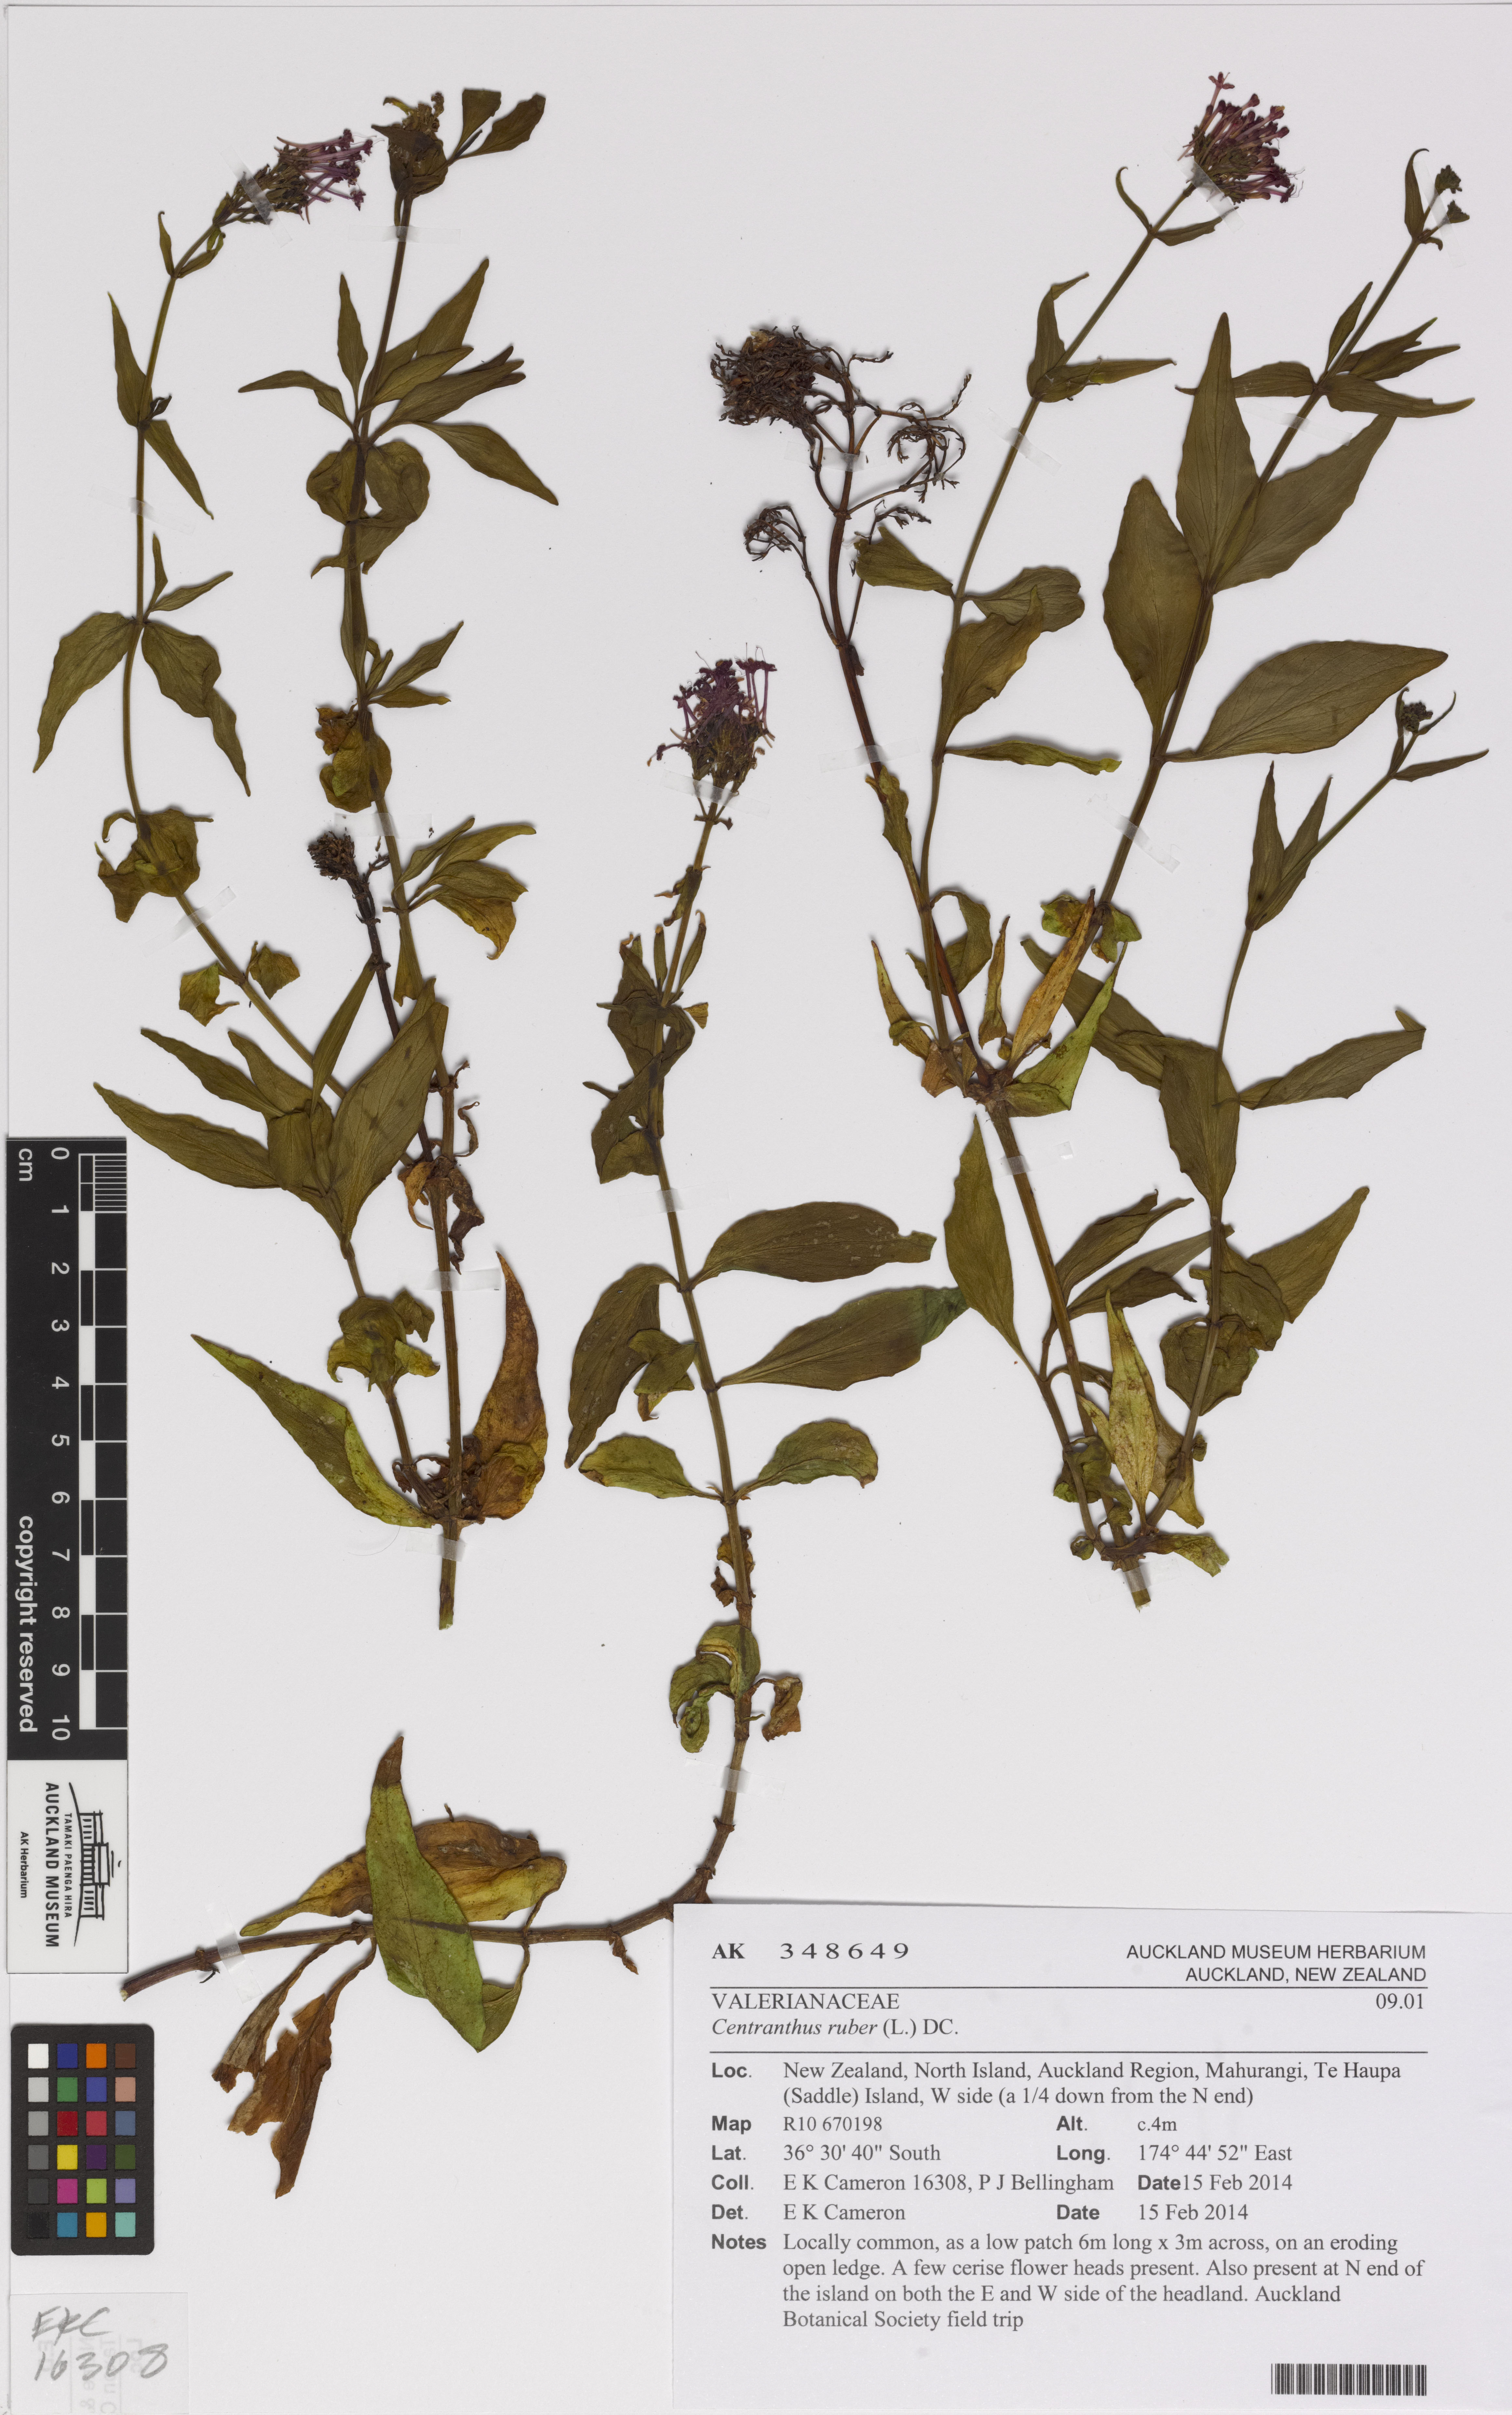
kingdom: Plantae
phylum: Tracheophyta
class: Magnoliopsida
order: Dipsacales
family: Caprifoliaceae
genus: Centranthus
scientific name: Centranthus ruber
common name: Red valerian
